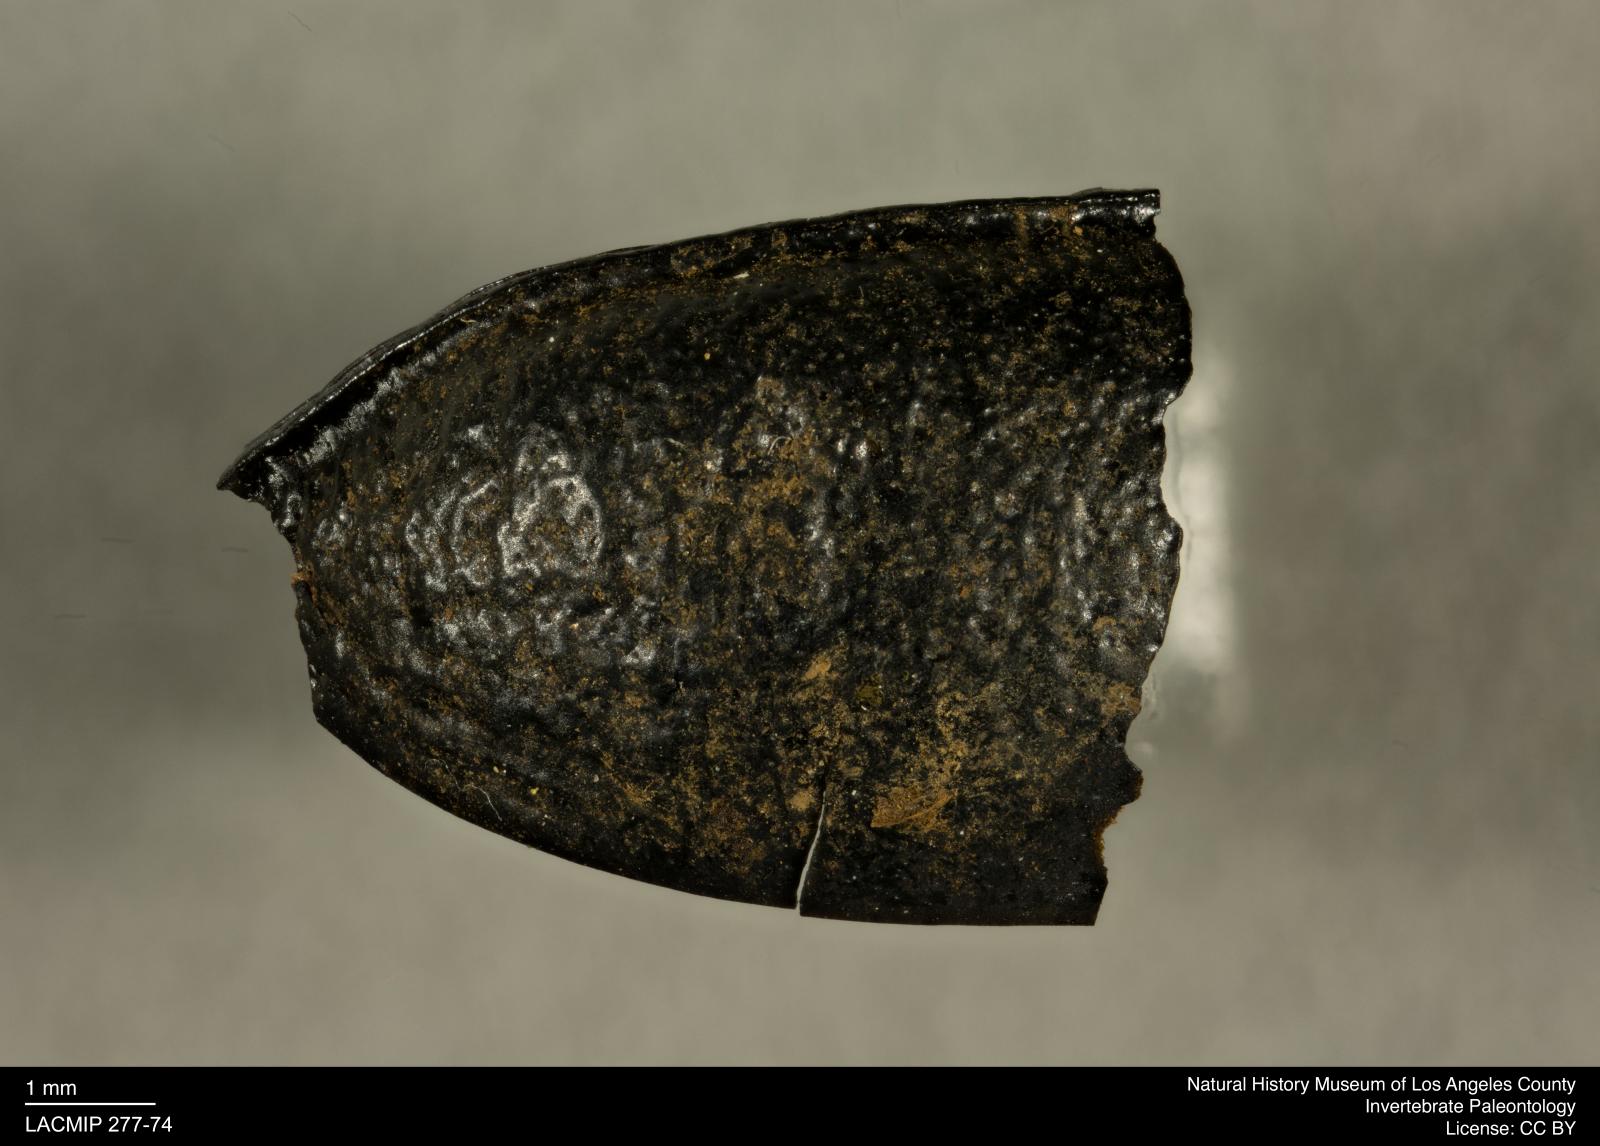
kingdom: Animalia
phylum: Arthropoda
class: Insecta
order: Coleoptera
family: Tenebrionidae
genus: Coniontis
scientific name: Coniontis abdominalis
